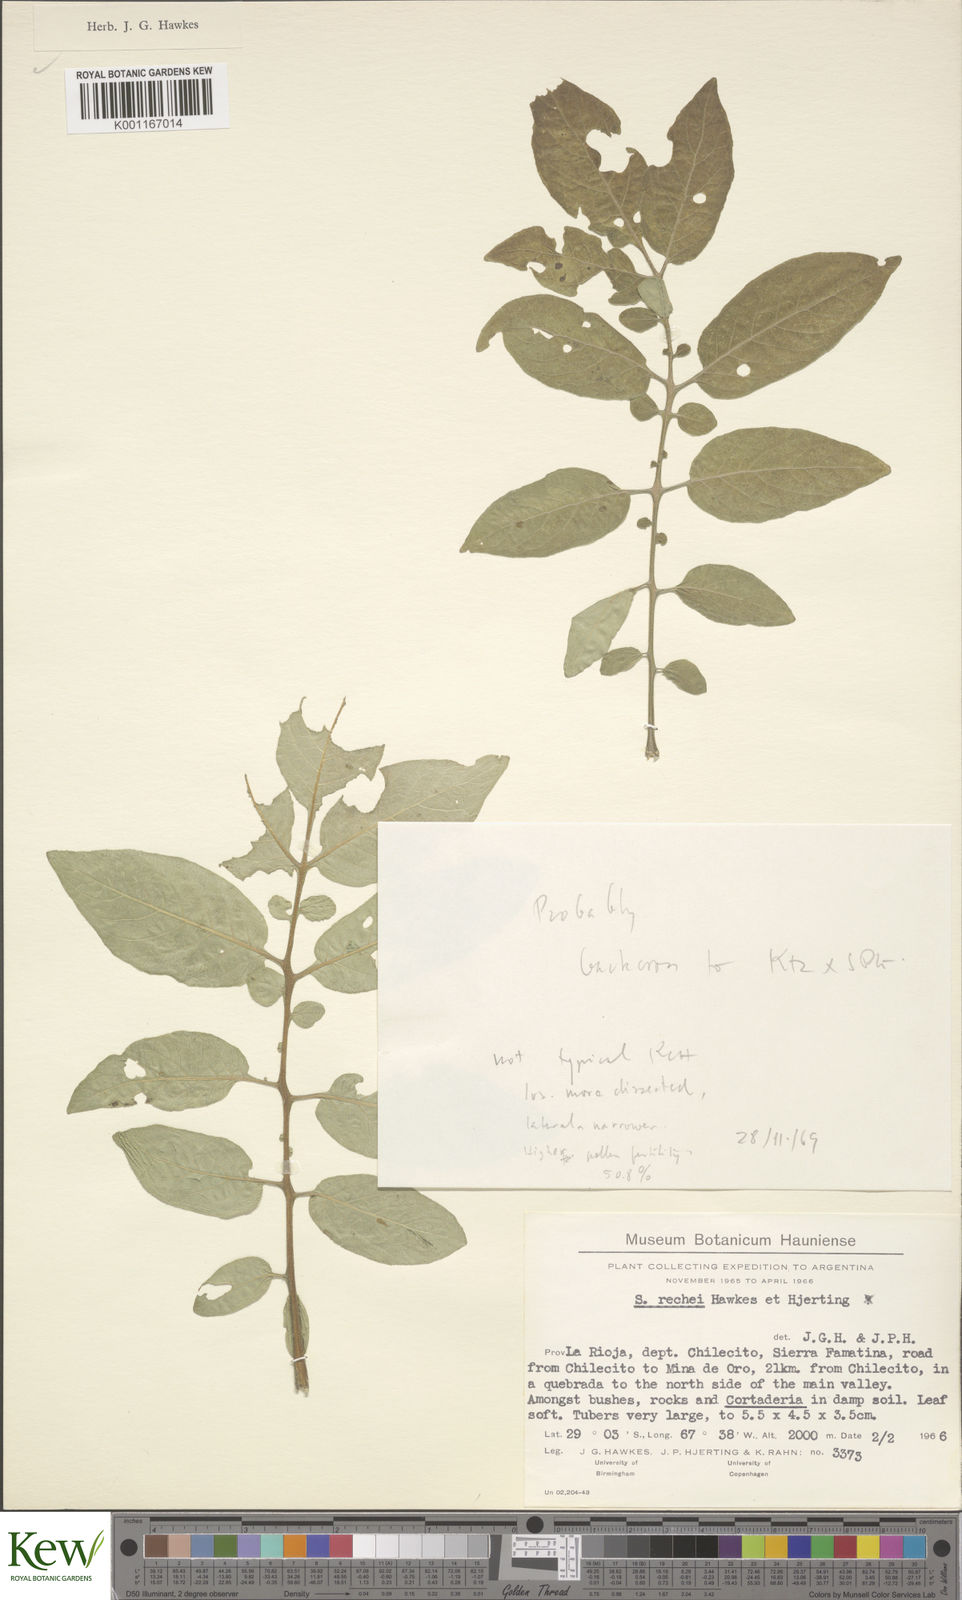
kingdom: Plantae
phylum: Tracheophyta
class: Magnoliopsida
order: Solanales
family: Solanaceae
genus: Solanum
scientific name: Solanum rechei
